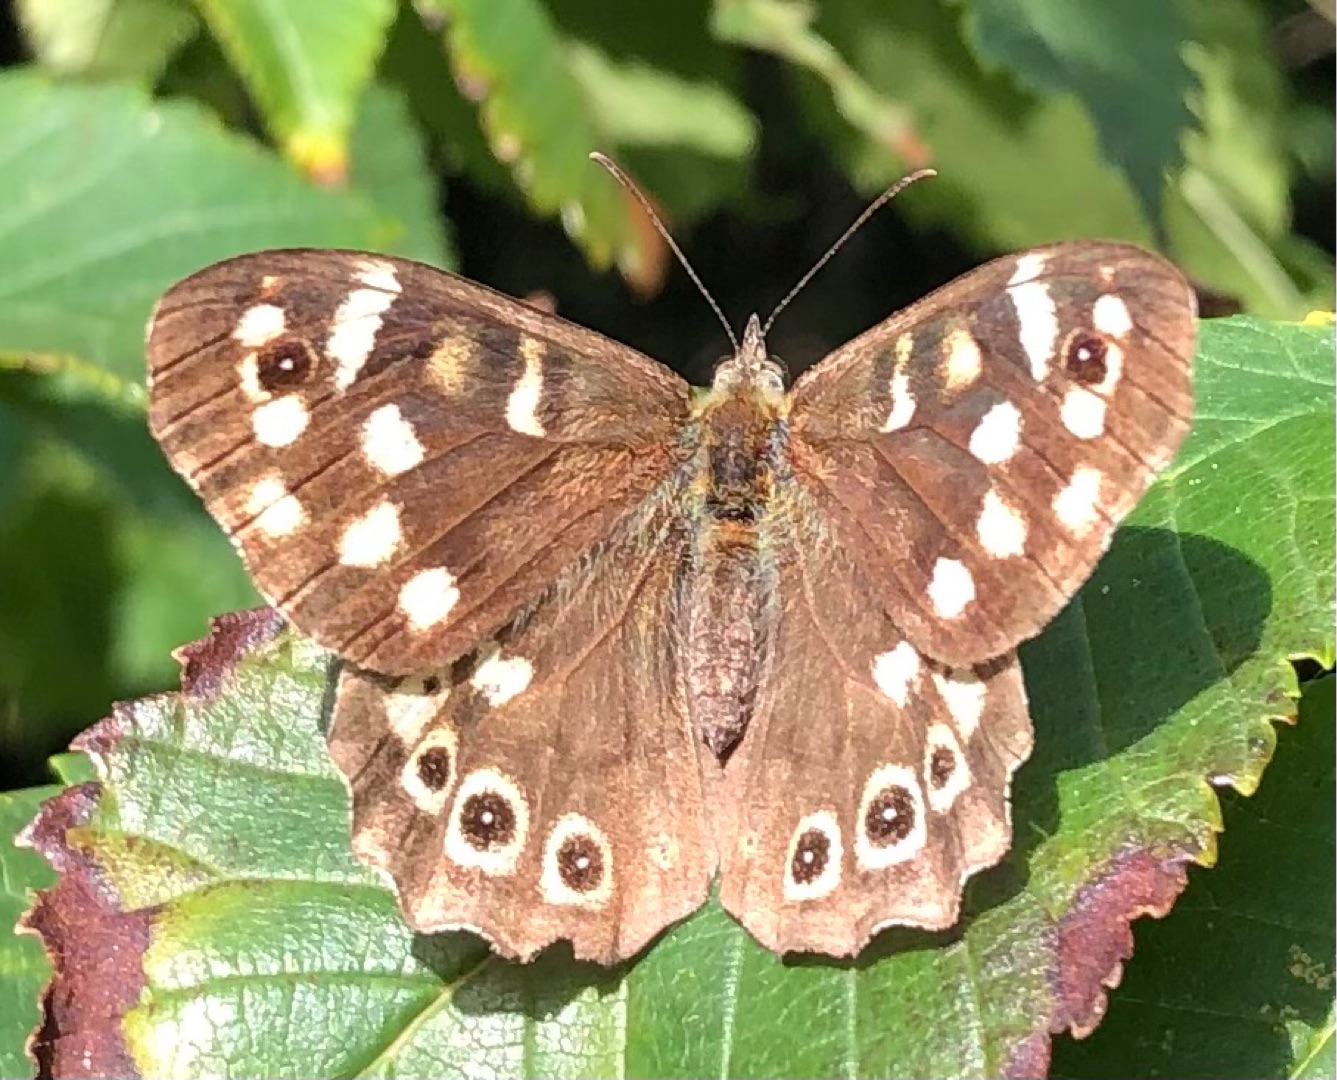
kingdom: Animalia
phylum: Arthropoda
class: Insecta
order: Lepidoptera
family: Nymphalidae
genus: Pararge
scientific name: Pararge aegeria
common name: Skovrandøje
